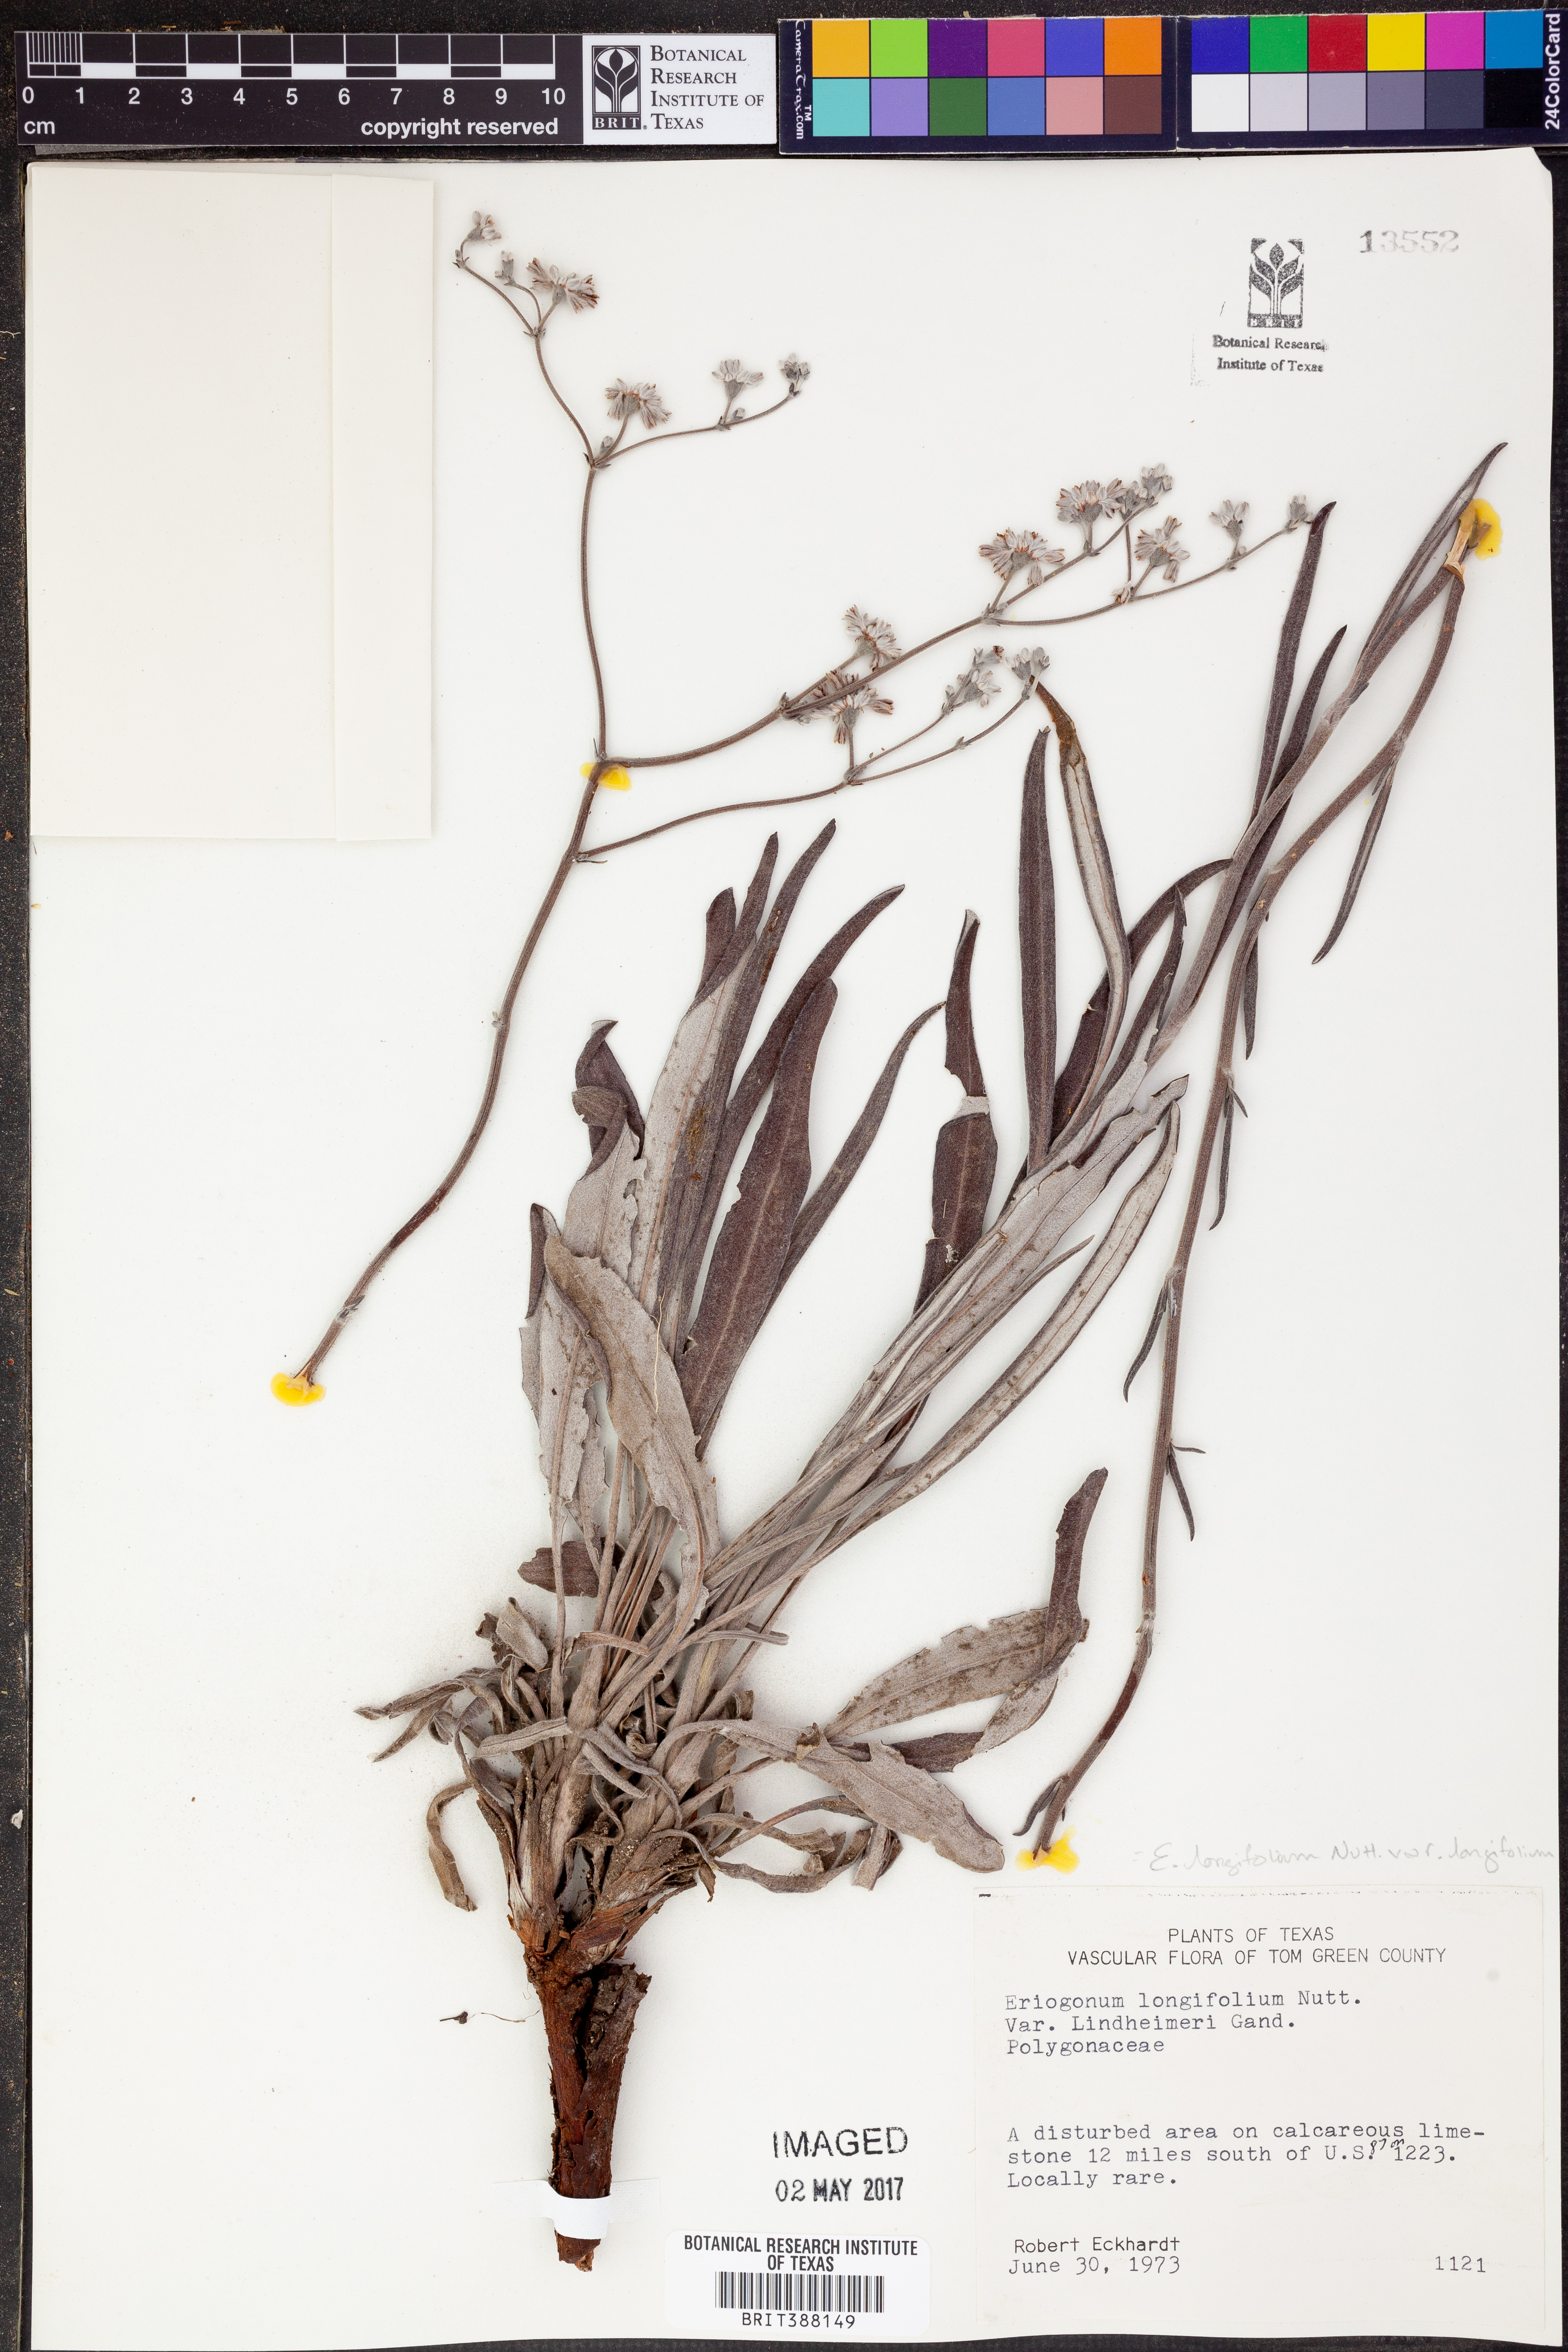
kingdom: Plantae
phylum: Tracheophyta
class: Magnoliopsida
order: Caryophyllales
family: Polygonaceae
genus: Eriogonum
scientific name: Eriogonum longifolium
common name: Longleaf wild buckwheat
